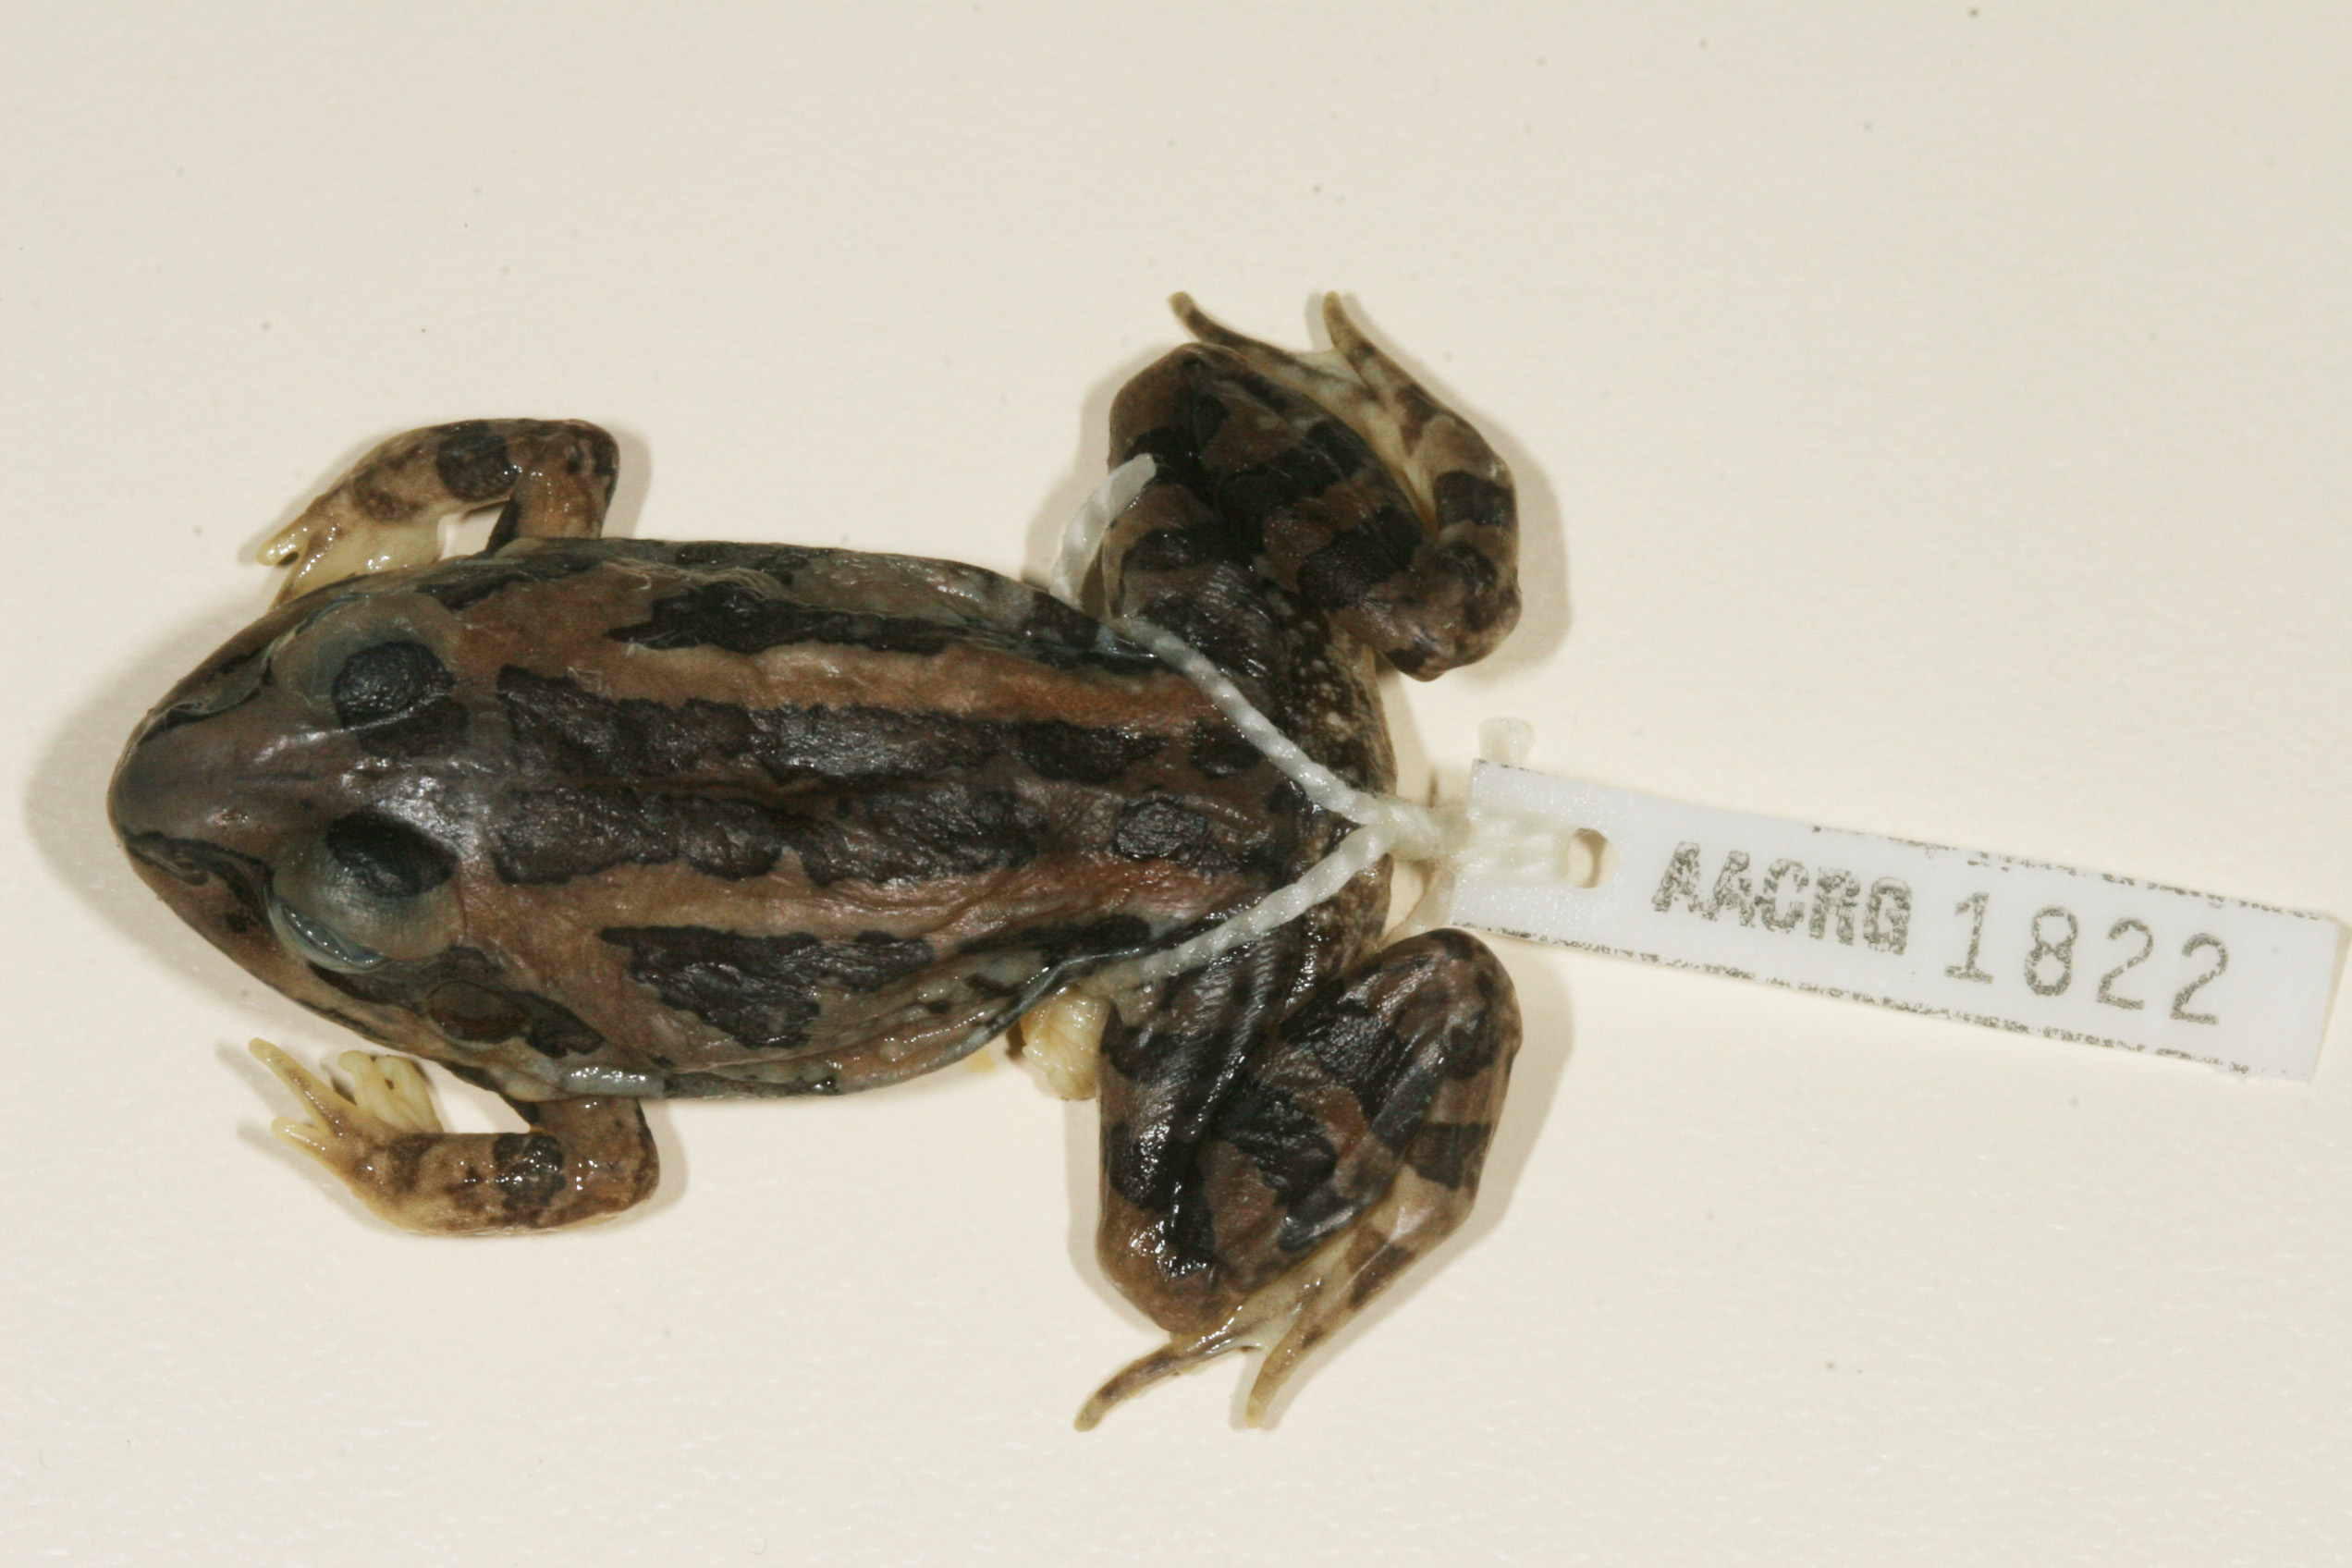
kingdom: Animalia
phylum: Chordata
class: Amphibia
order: Anura
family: Ptychadenidae
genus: Hildebrandtia
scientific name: Hildebrandtia ornata
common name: Ornate frog
